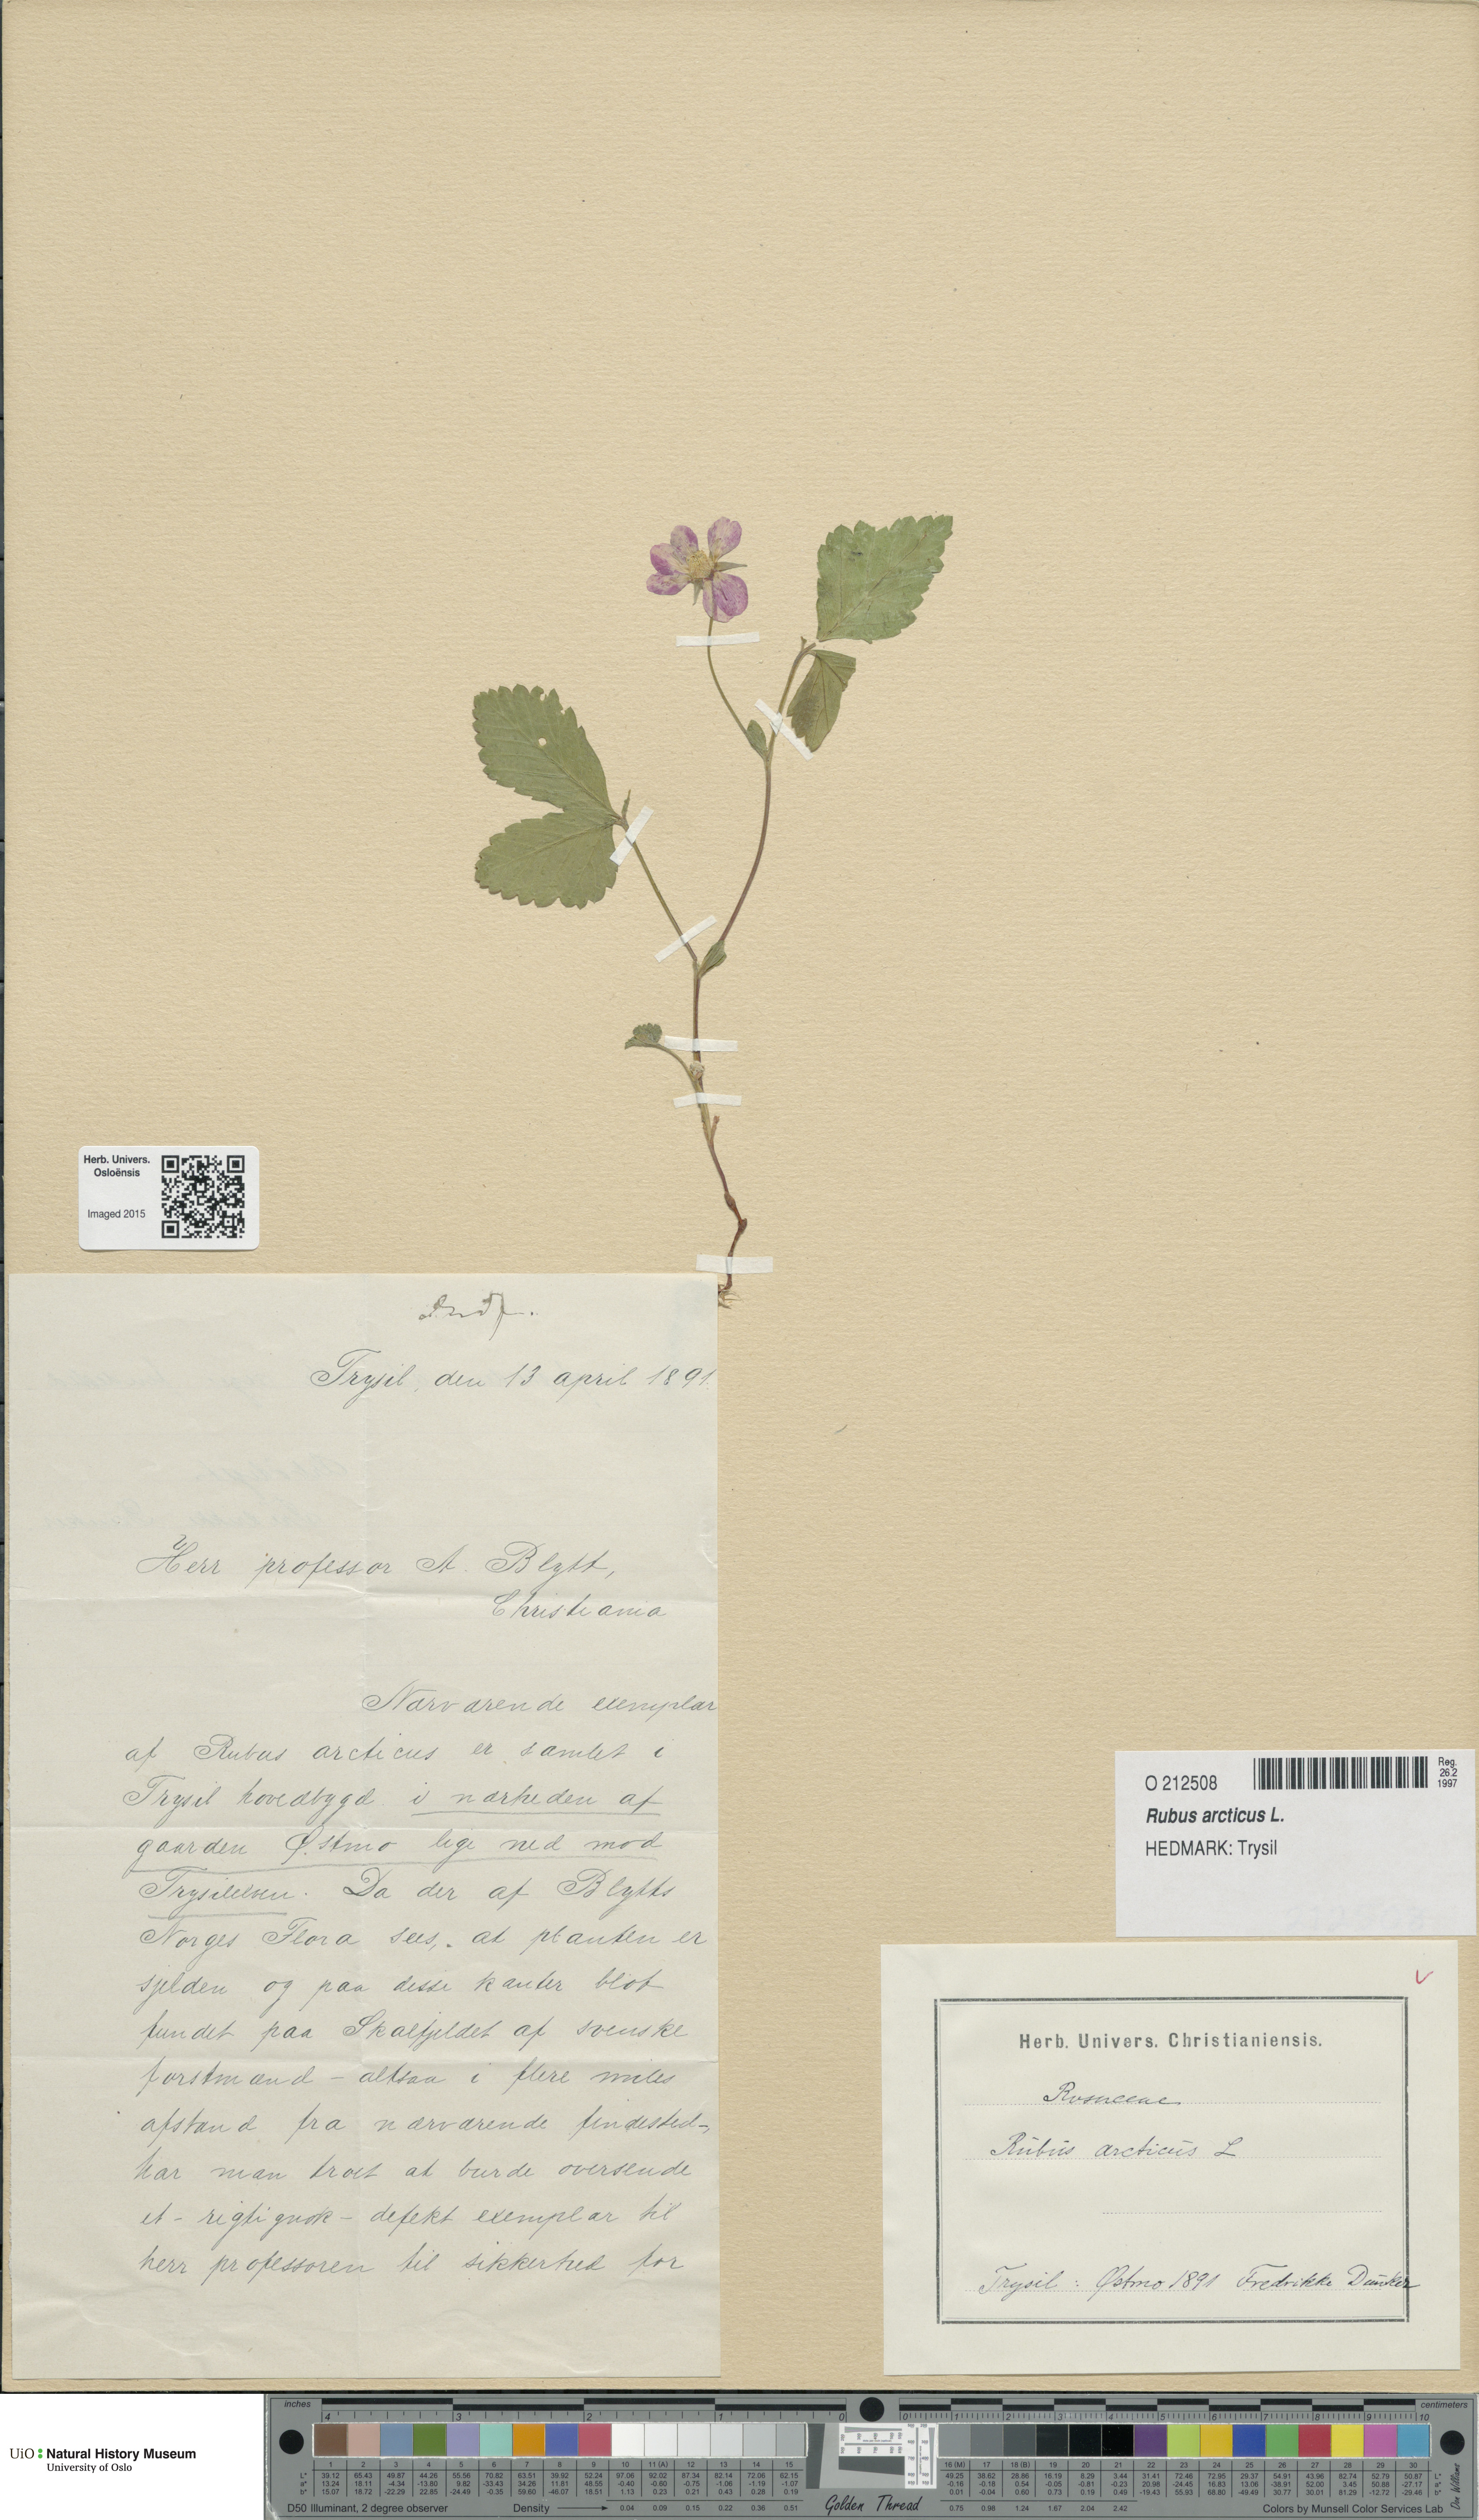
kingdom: Plantae
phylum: Tracheophyta
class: Magnoliopsida
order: Rosales
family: Rosaceae
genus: Rubus
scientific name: Rubus arcticus
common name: Arctic bramble
